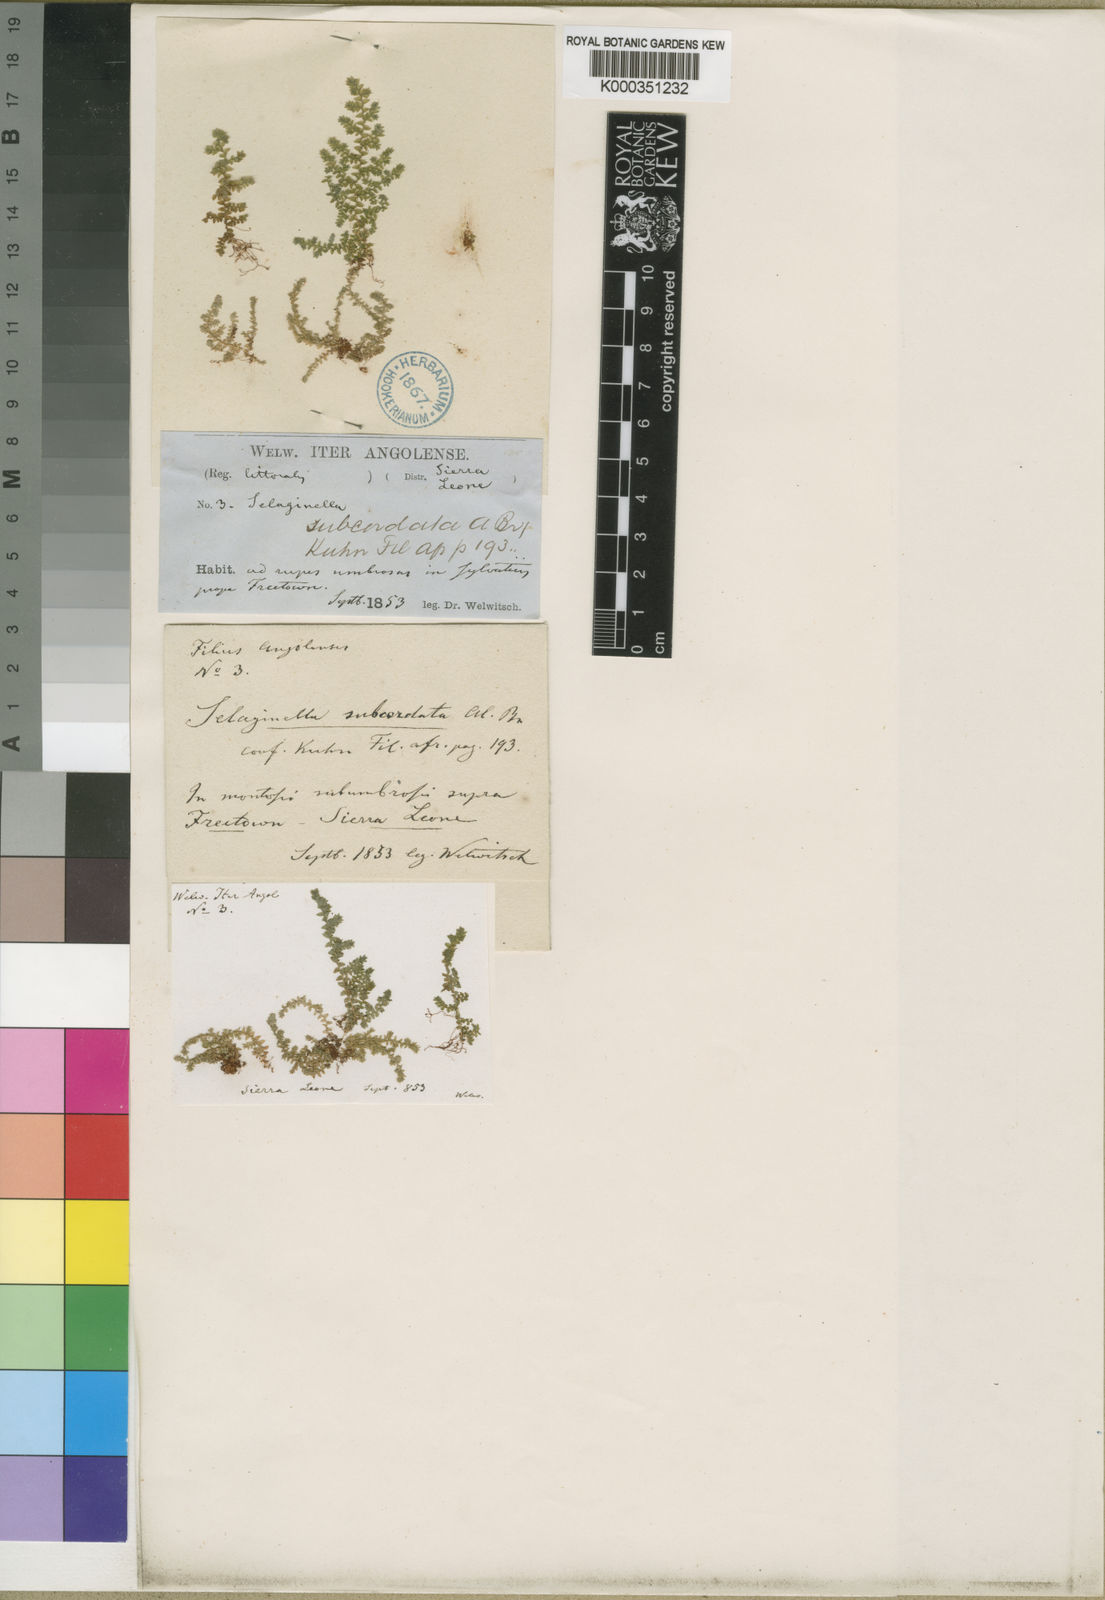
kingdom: Plantae
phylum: Tracheophyta
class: Lycopodiopsida
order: Selaginellales
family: Selaginellaceae
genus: Selaginella
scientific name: Selaginella subcordata
